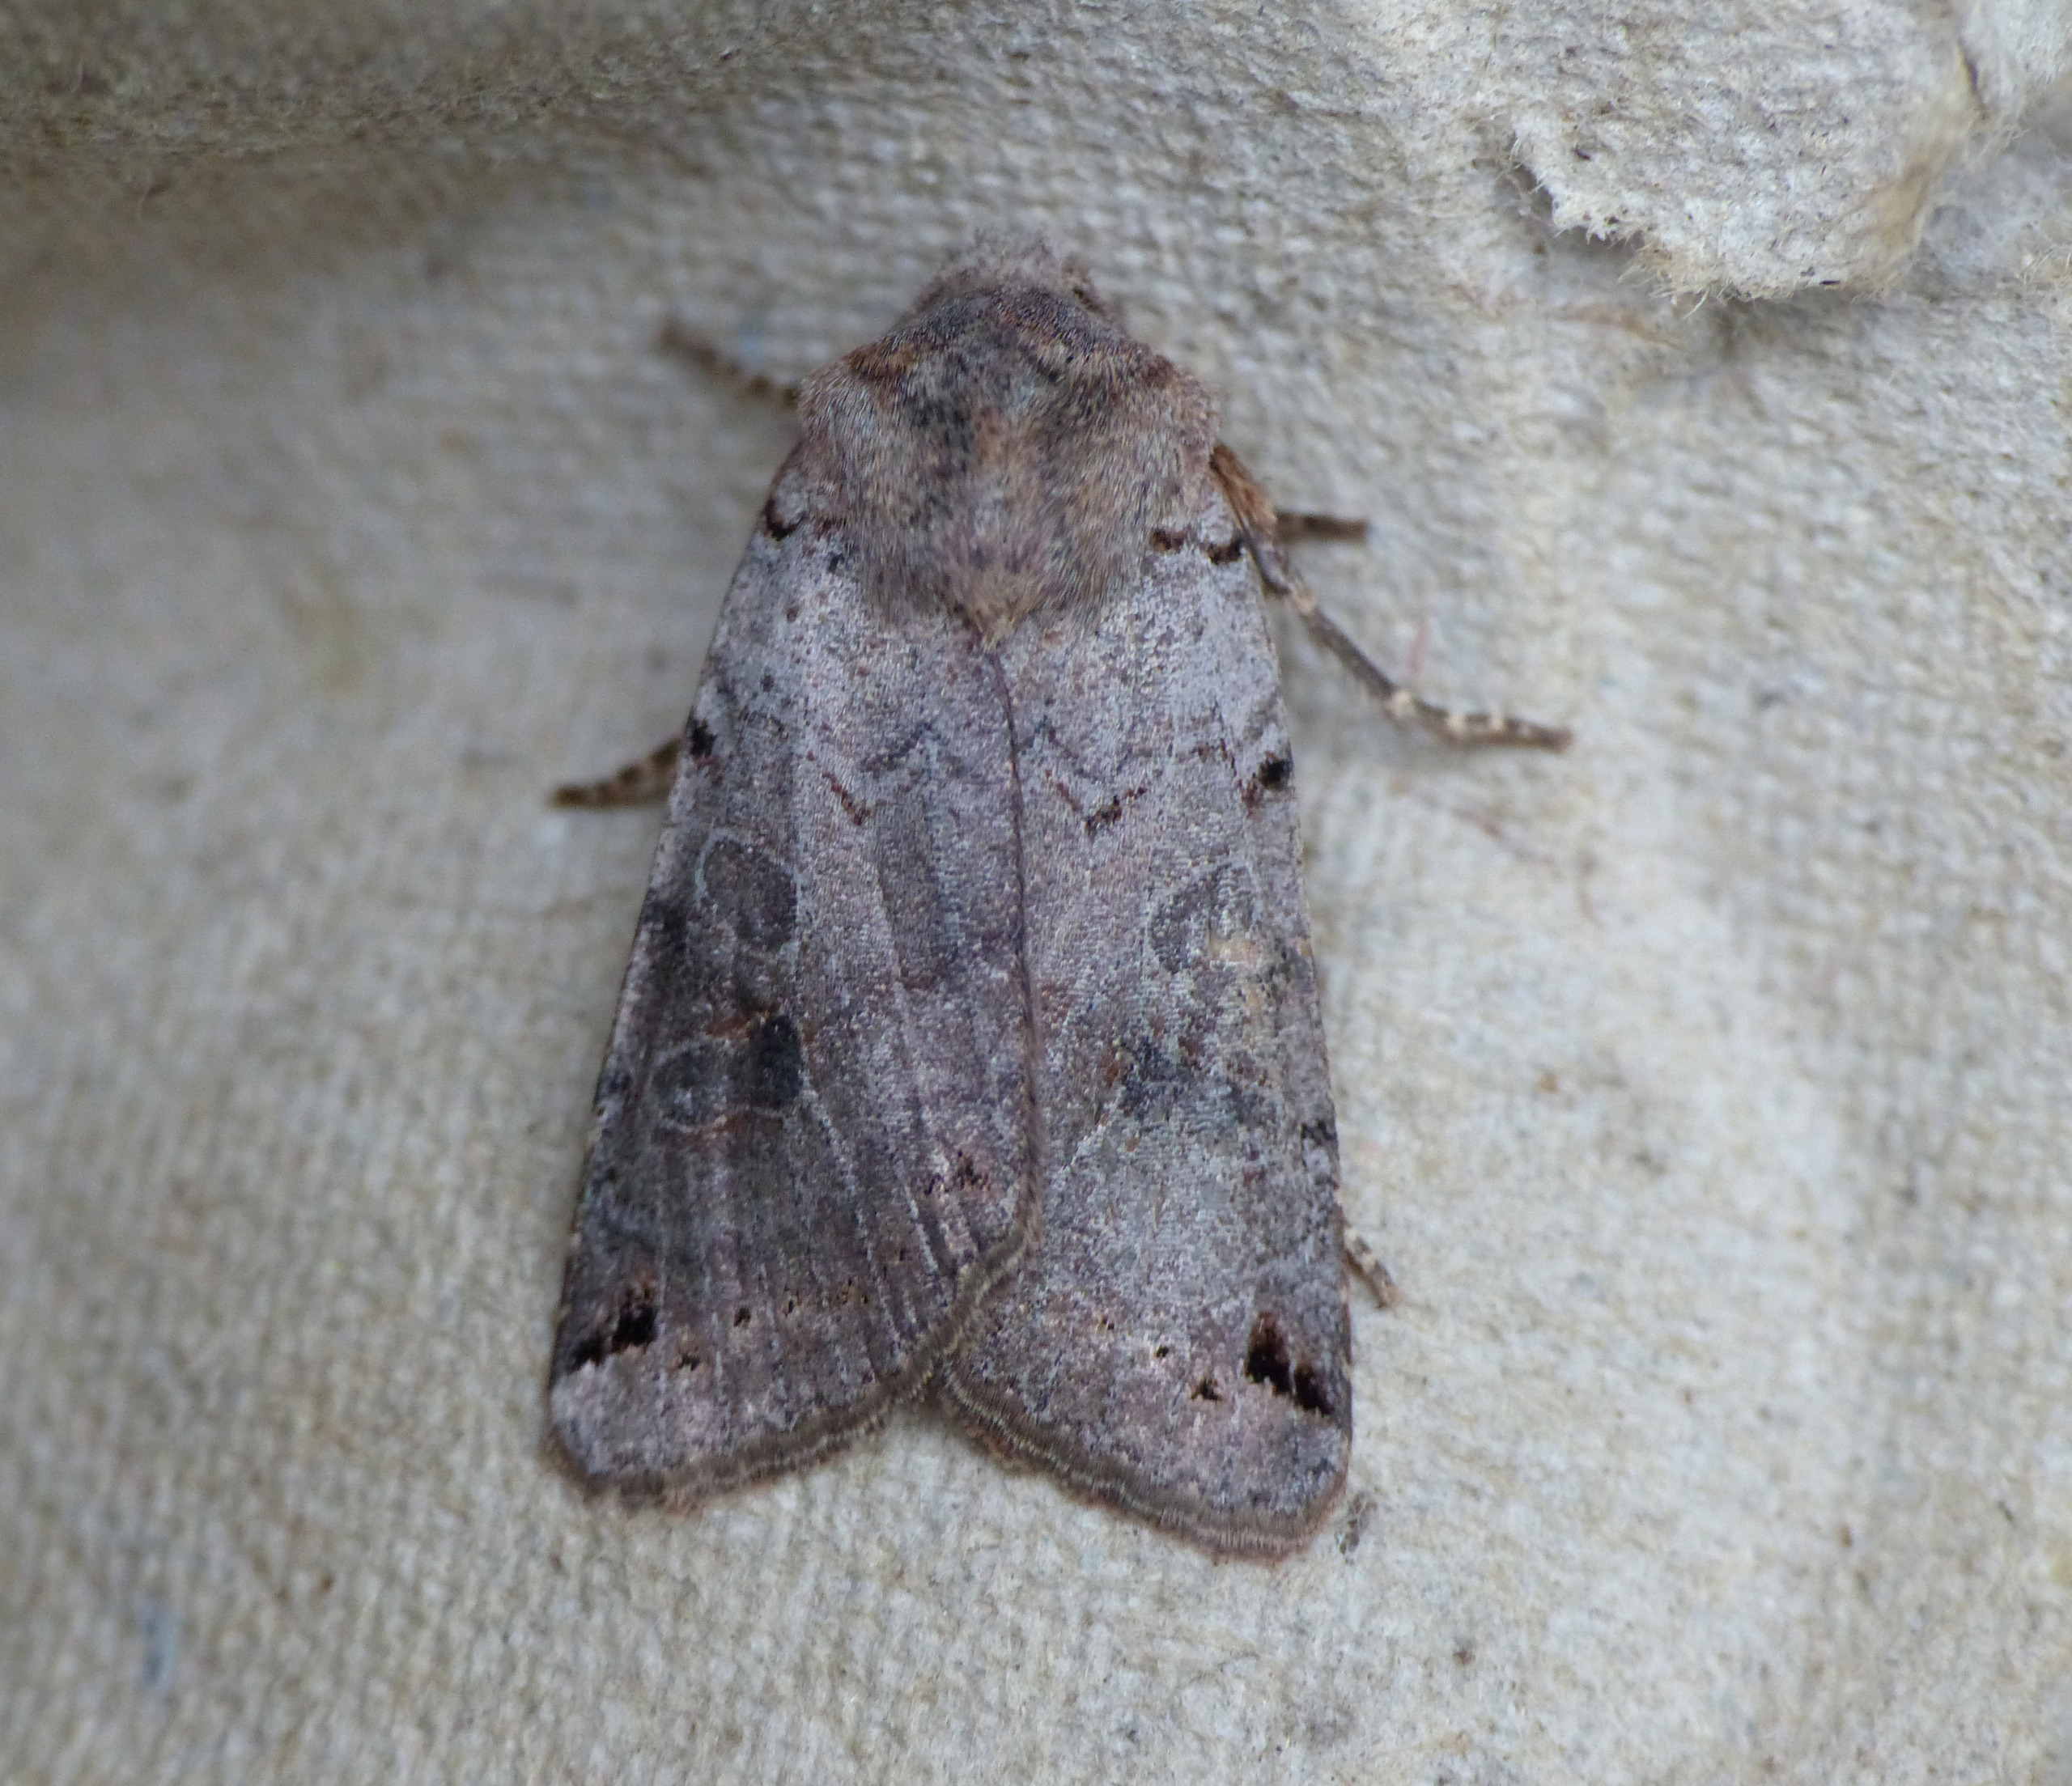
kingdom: Animalia
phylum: Arthropoda
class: Insecta
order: Lepidoptera
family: Noctuidae
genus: Agrochola
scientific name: Agrochola litura
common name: Kantplettet jordfarveugle
